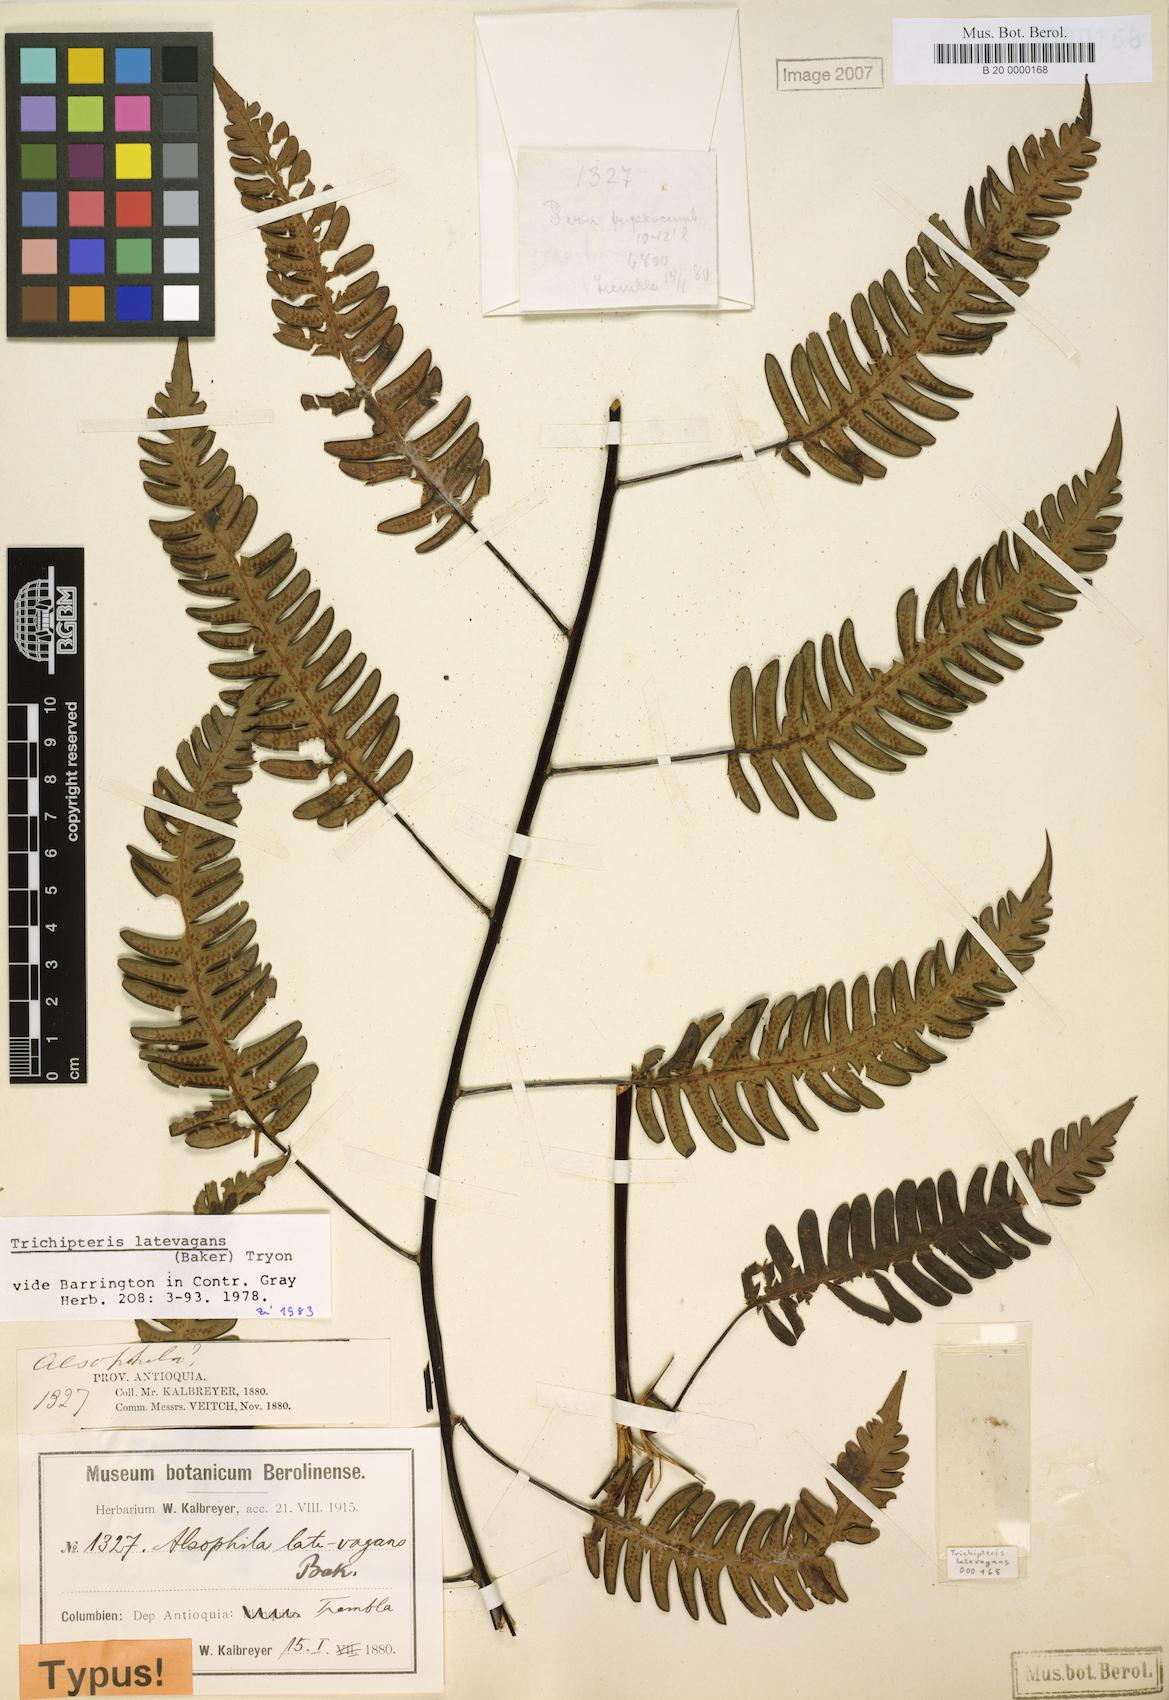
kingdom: Plantae
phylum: Tracheophyta
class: Polypodiopsida
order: Cyatheales
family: Cyatheaceae
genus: Cyathea
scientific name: Cyathea latevagans
